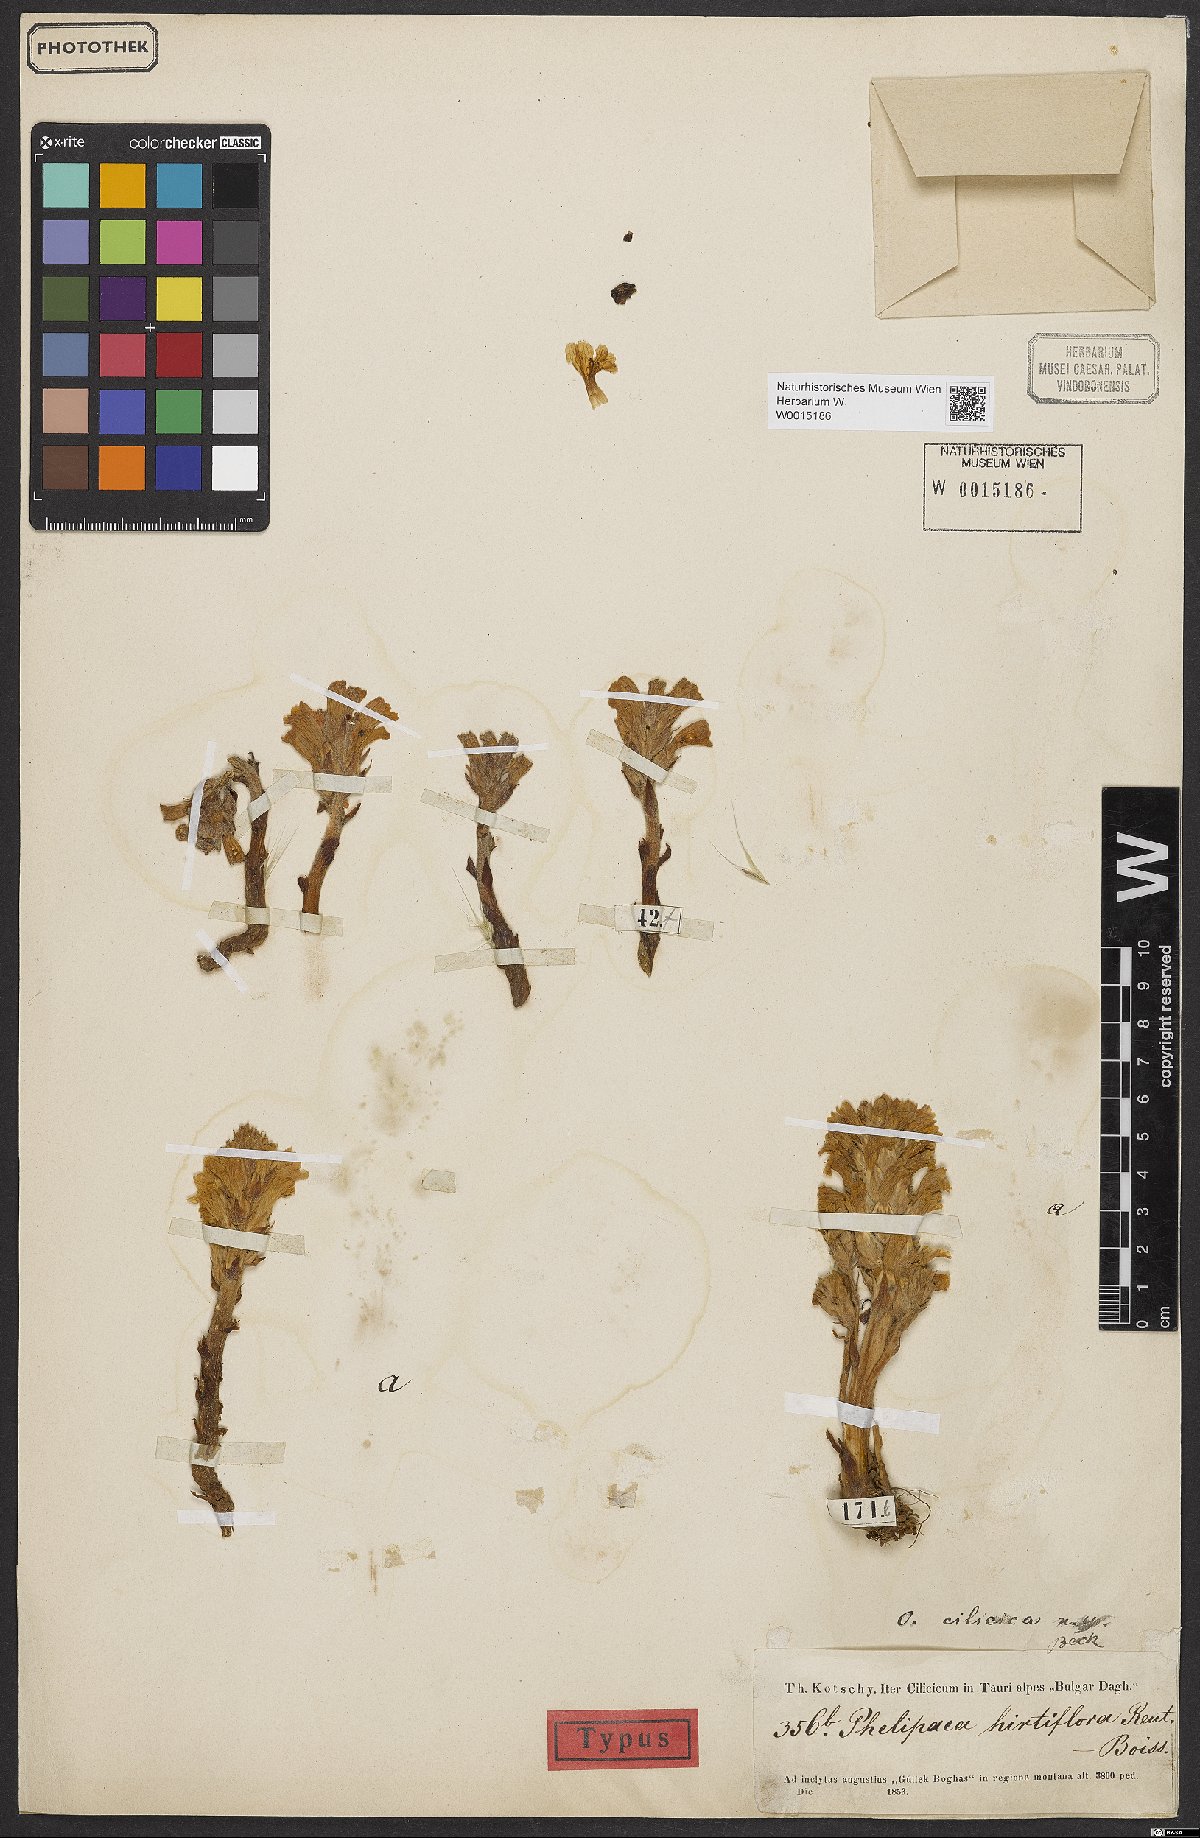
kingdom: Plantae
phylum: Tracheophyta
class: Magnoliopsida
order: Lamiales
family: Orobanchaceae
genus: Phelipanche
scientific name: Phelipanche cilicica
